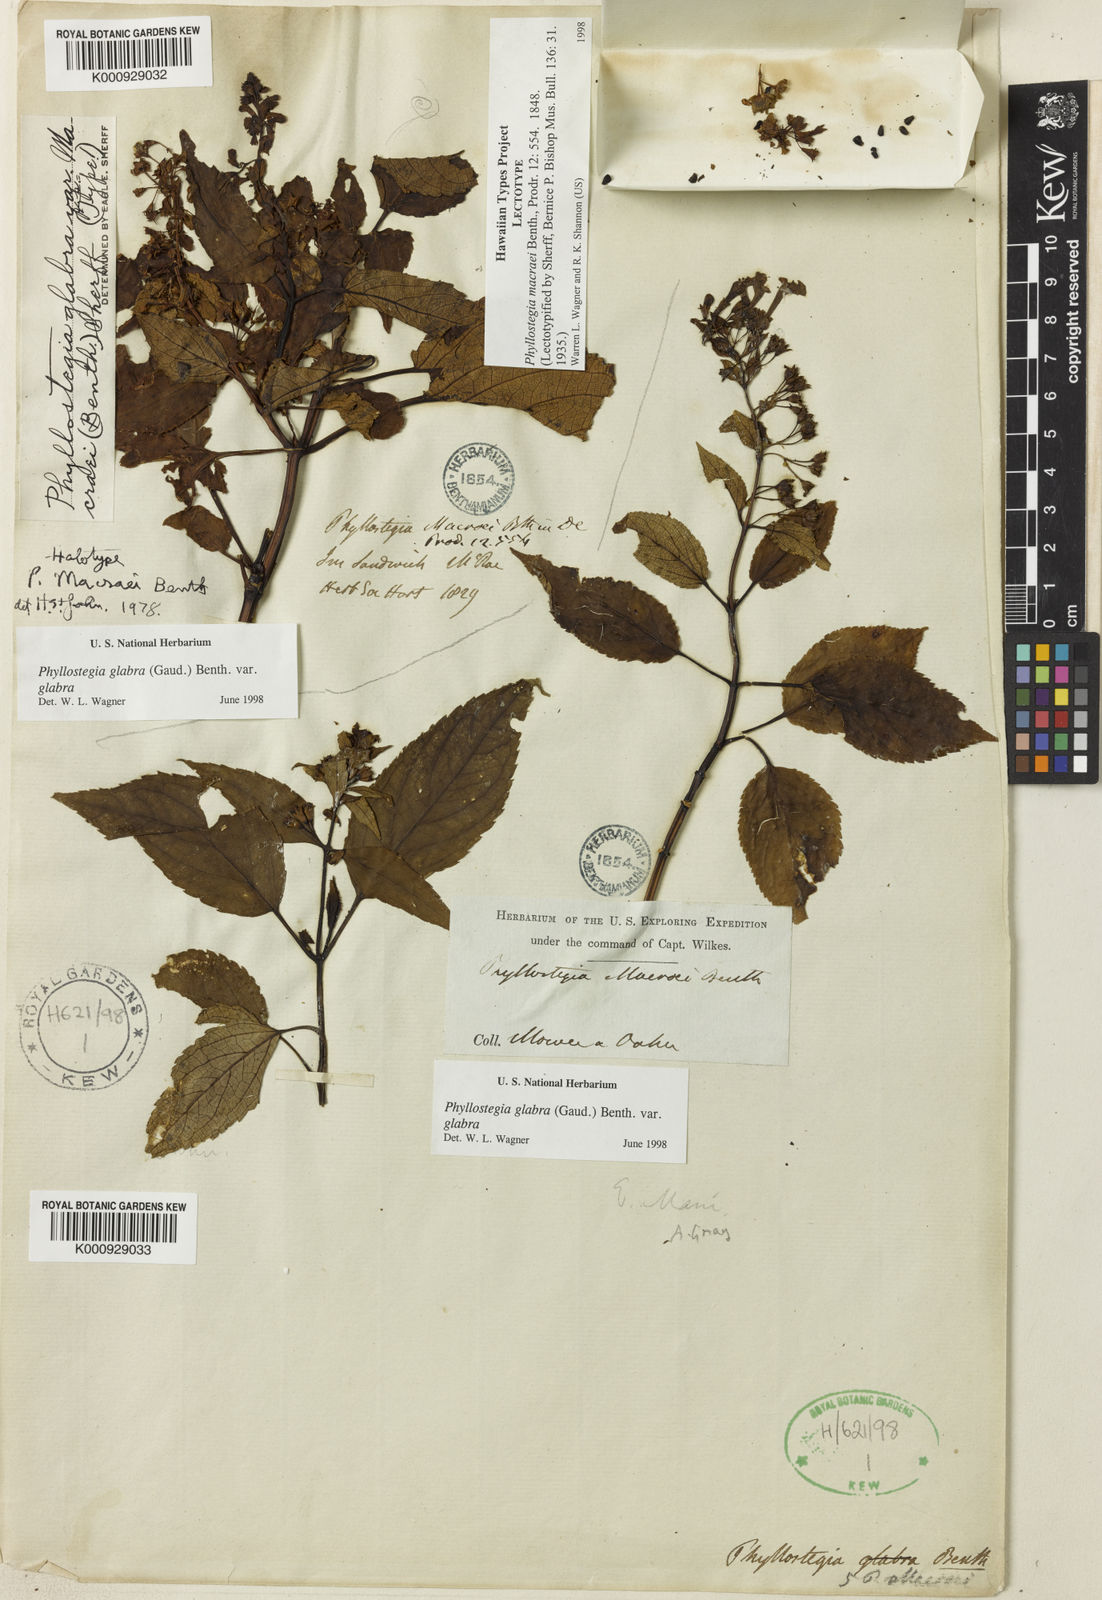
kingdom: Plantae
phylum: Tracheophyta
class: Magnoliopsida
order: Lamiales
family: Lamiaceae
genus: Phyllostegia
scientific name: Phyllostegia glabra
